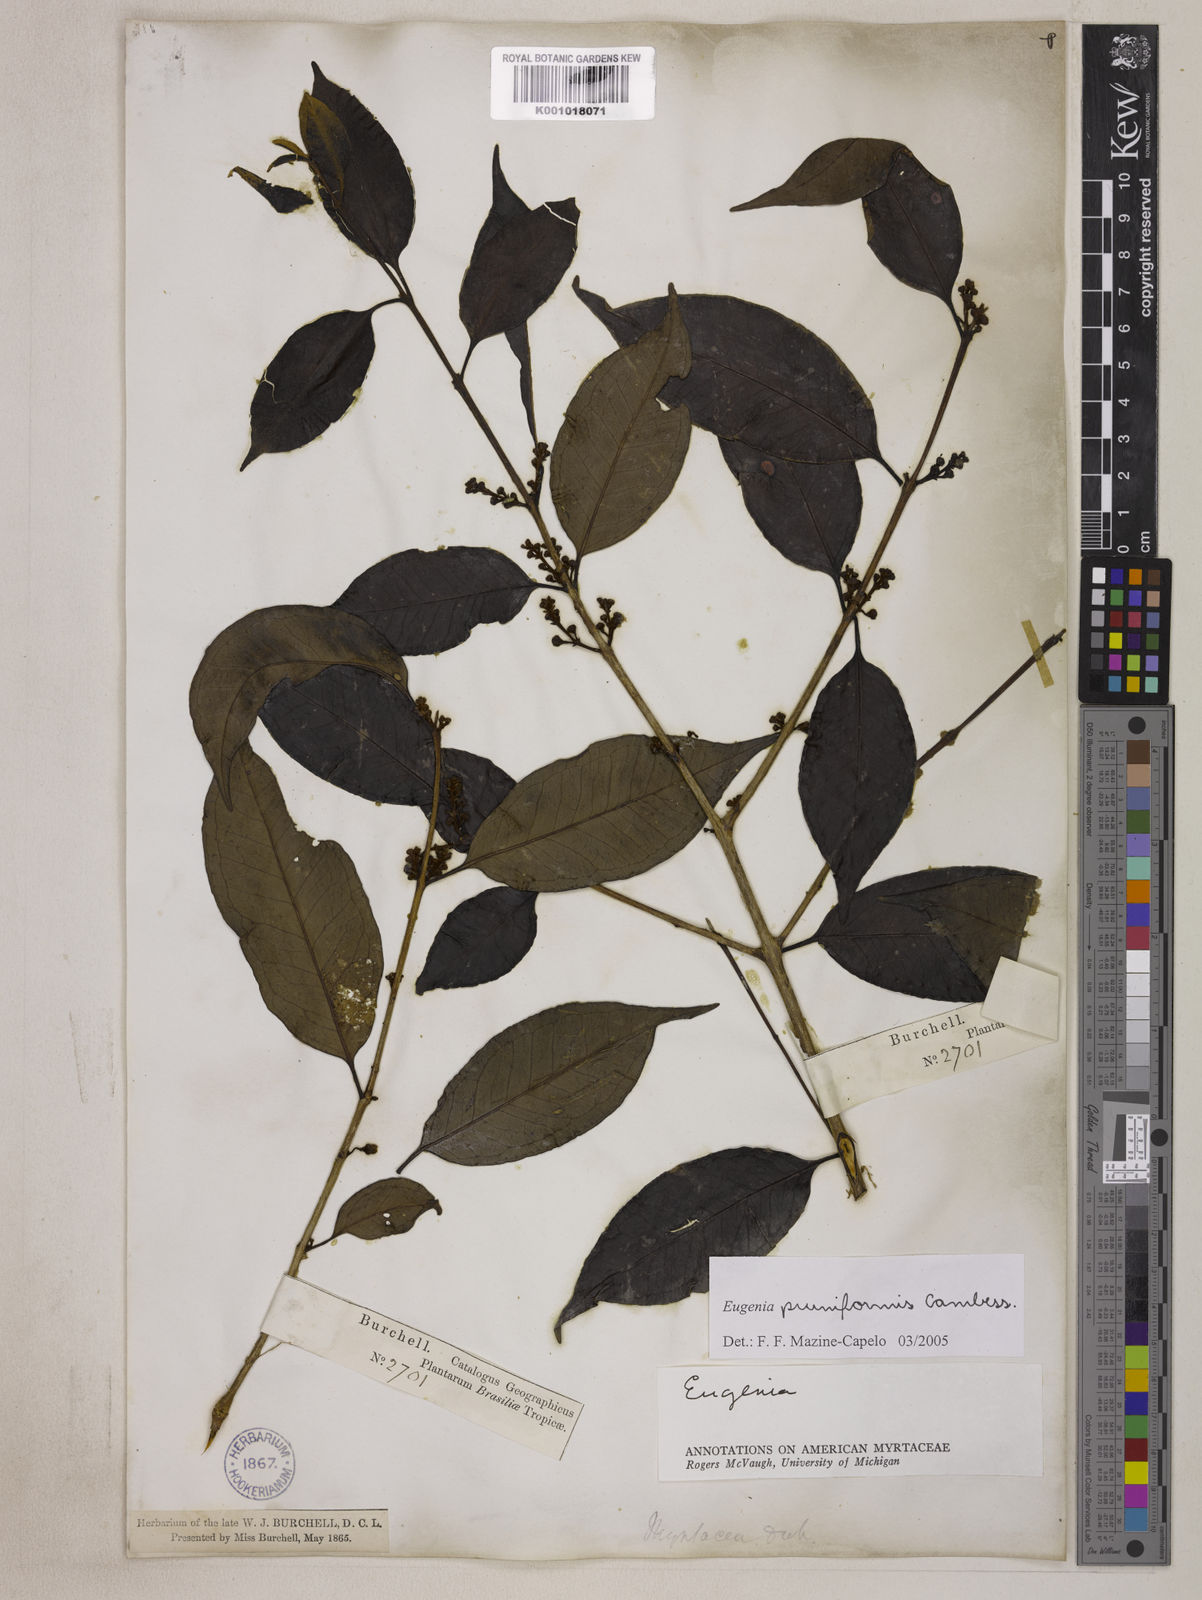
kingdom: Plantae
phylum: Tracheophyta
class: Magnoliopsida
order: Myrtales
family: Myrtaceae
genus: Eugenia
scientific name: Eugenia pruniformis
